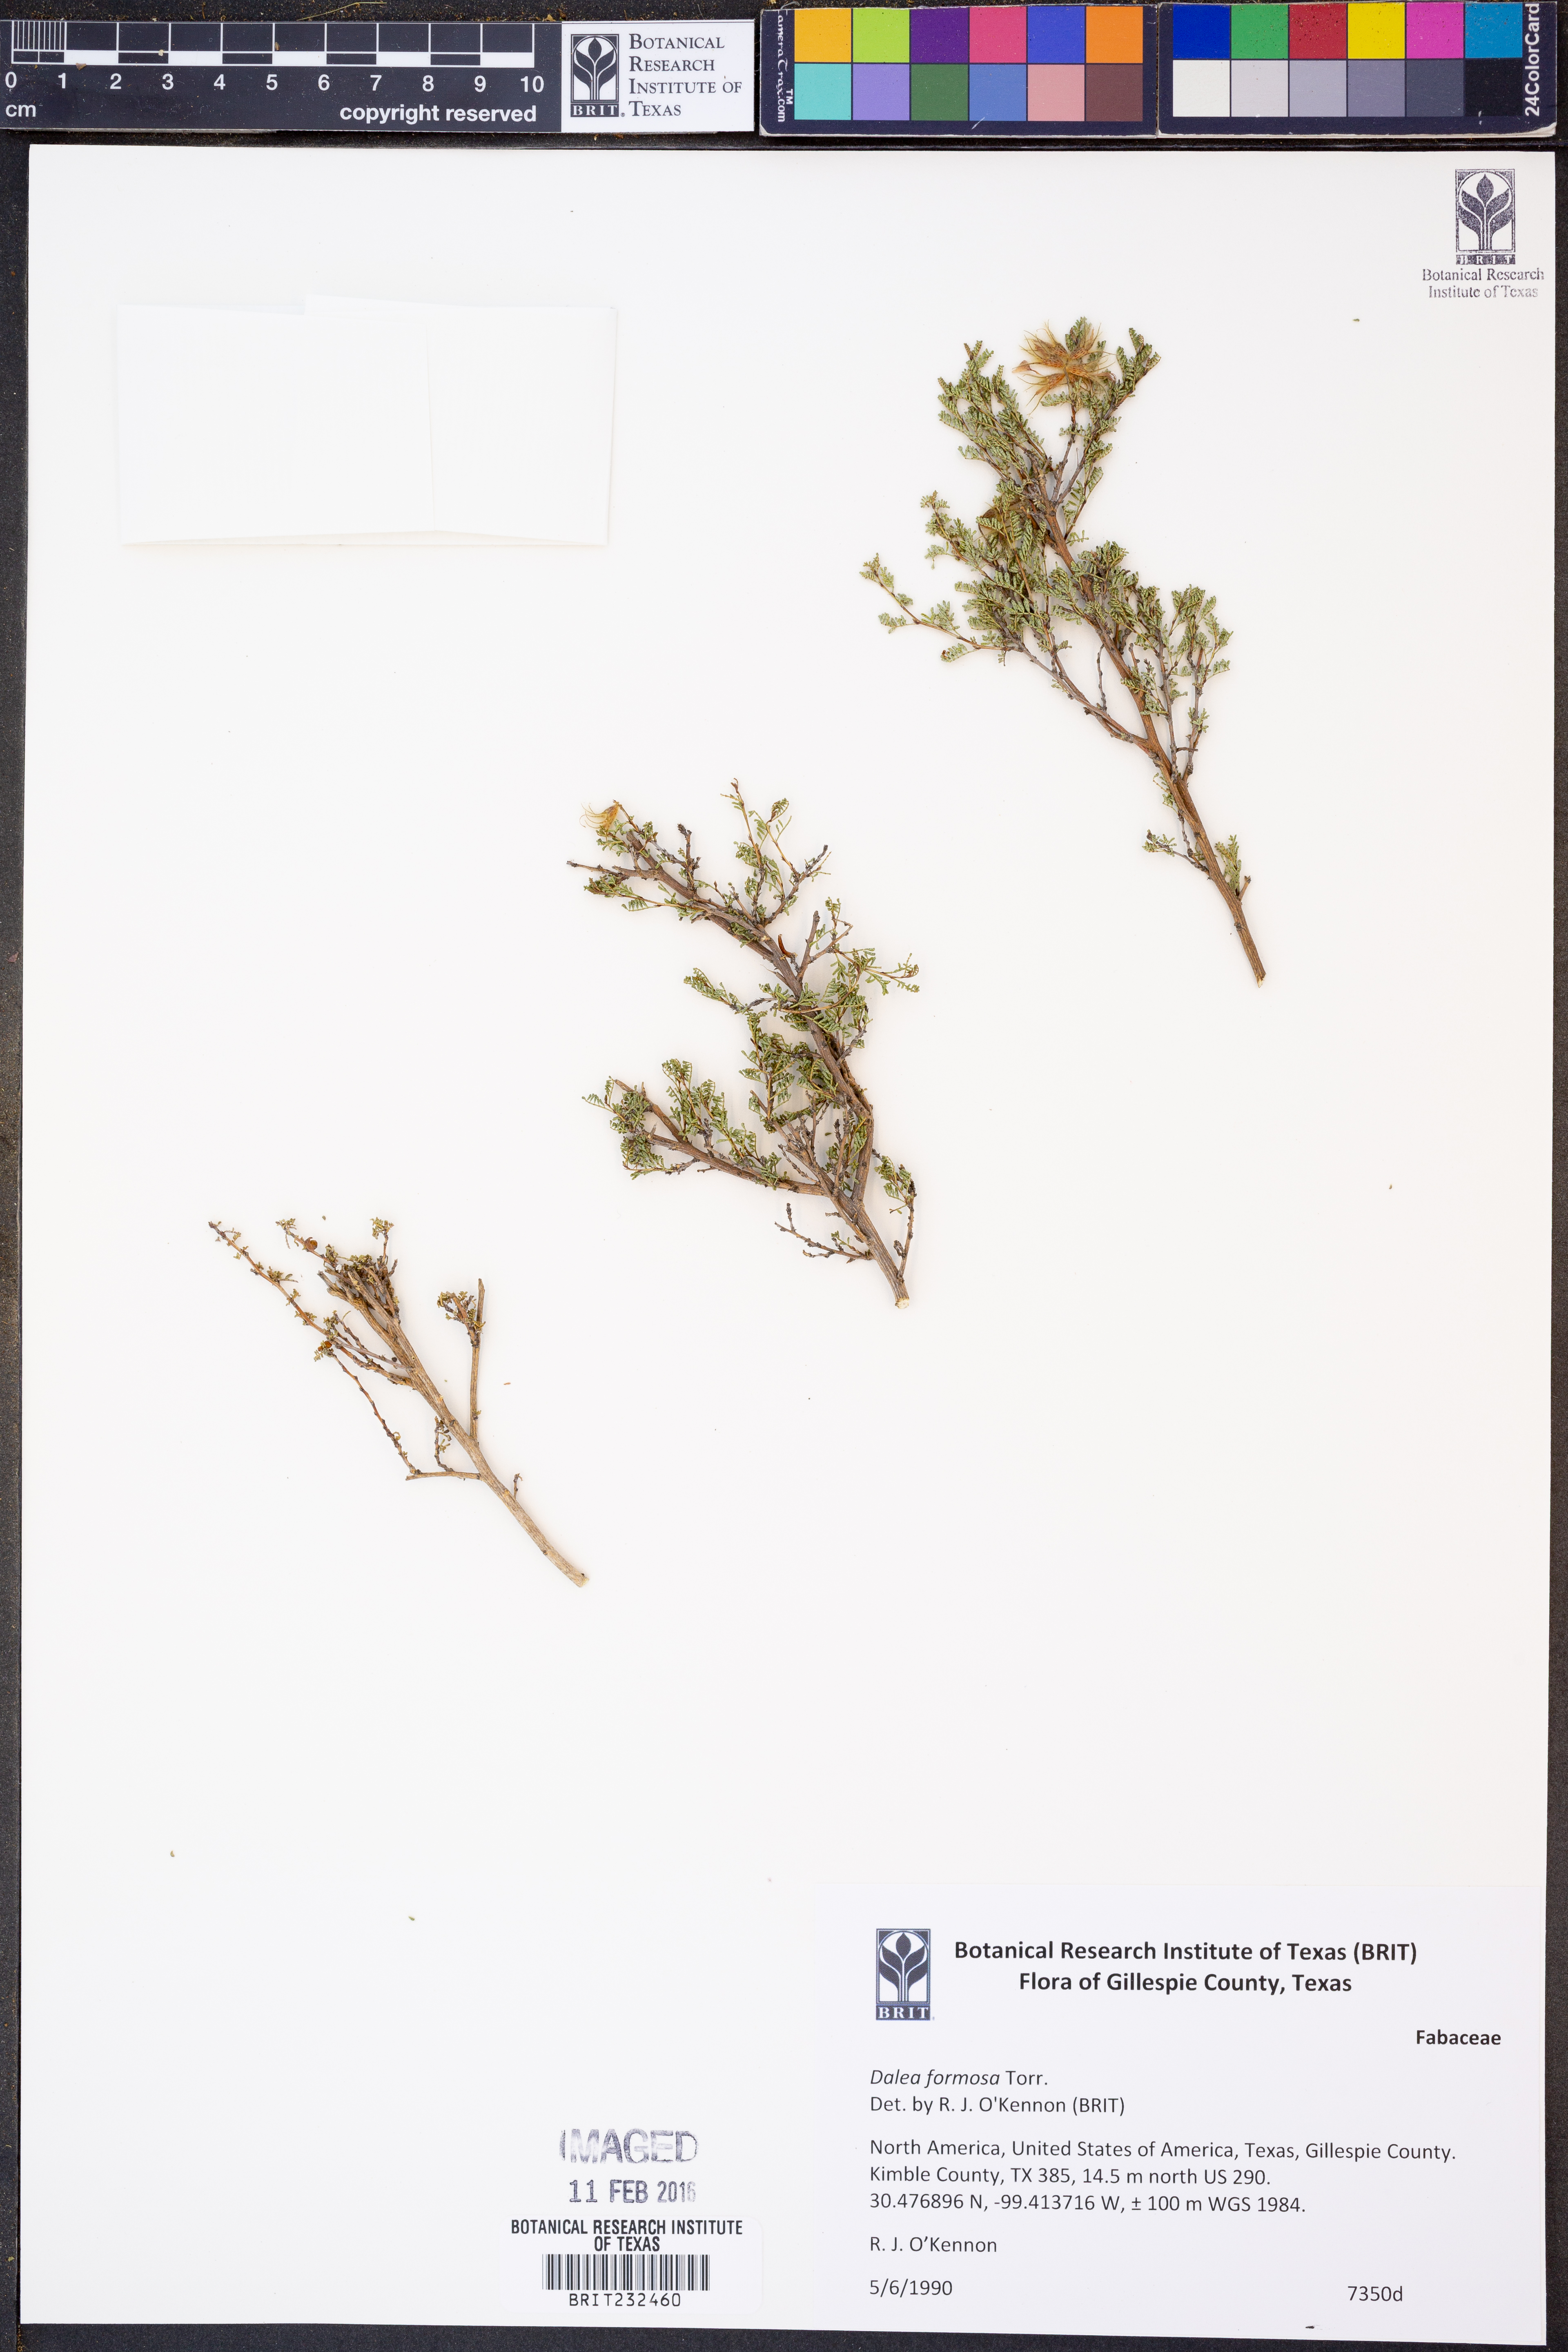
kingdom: Plantae
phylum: Tracheophyta
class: Magnoliopsida
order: Fabales
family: Fabaceae
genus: Dalea
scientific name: Dalea formosa
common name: Feather-plume dalea
